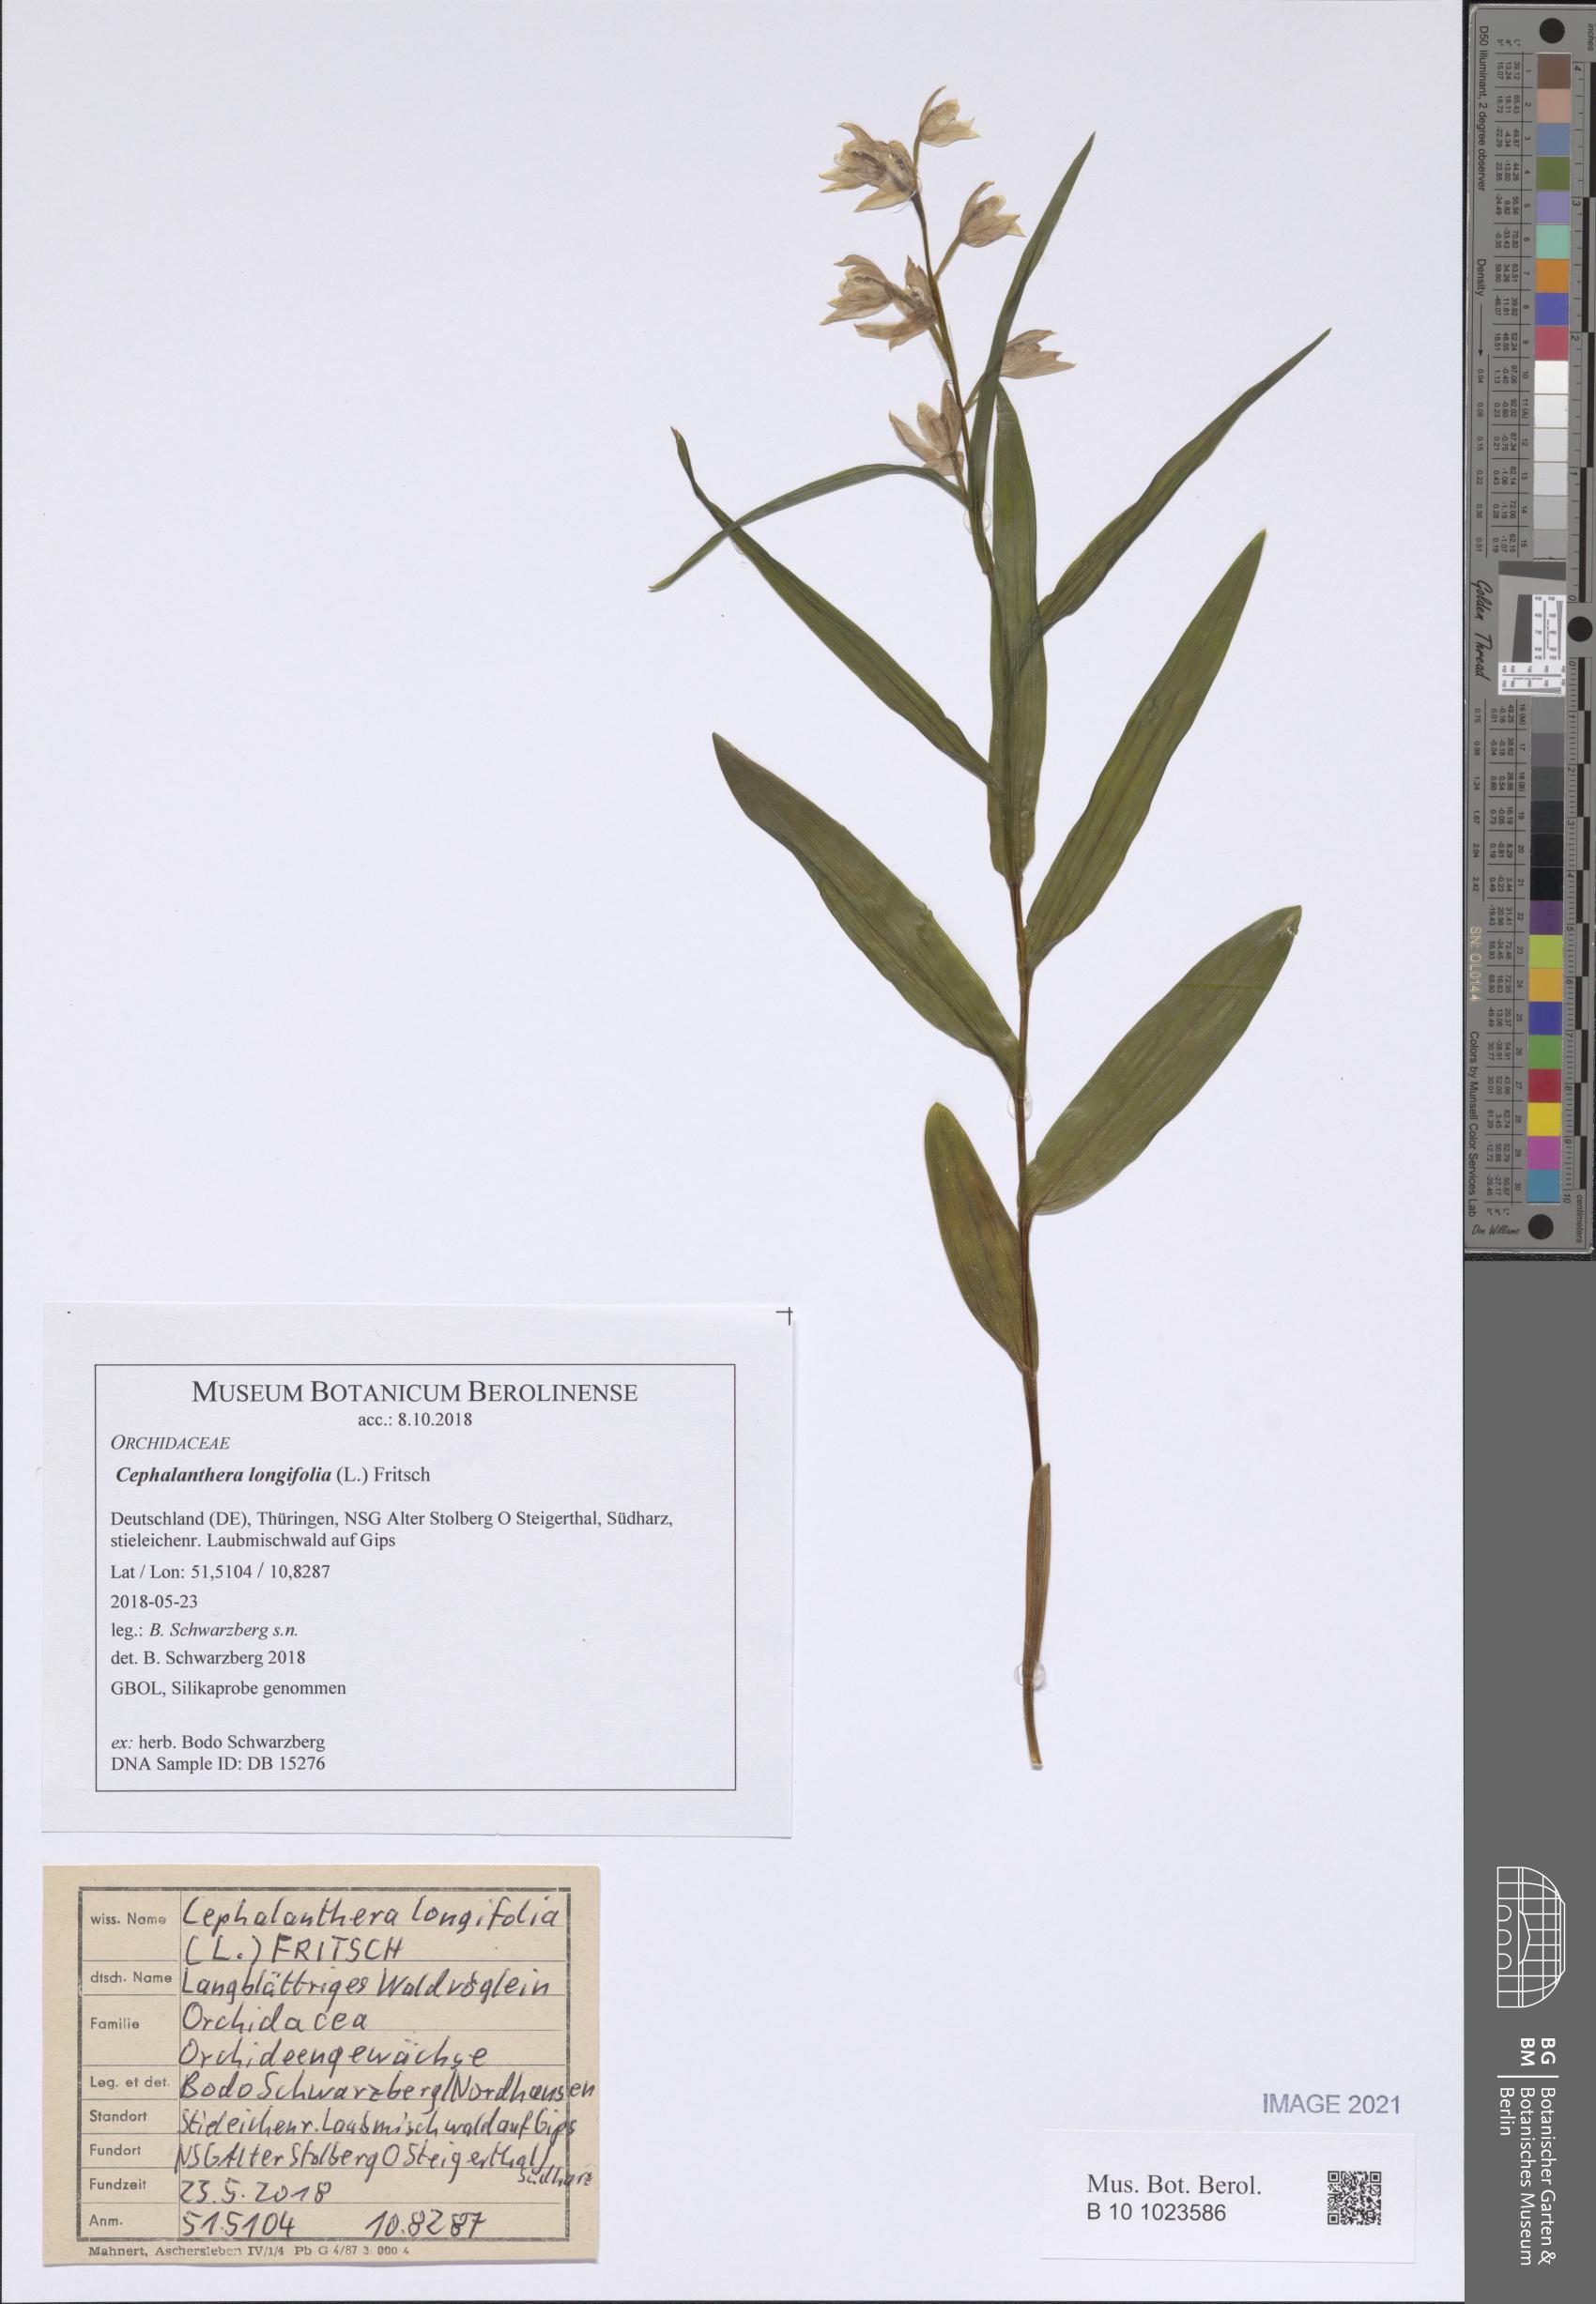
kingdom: Plantae
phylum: Tracheophyta
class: Liliopsida
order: Asparagales
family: Orchidaceae
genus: Cephalanthera
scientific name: Cephalanthera longifolia
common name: Narrow-leaved helleborine
